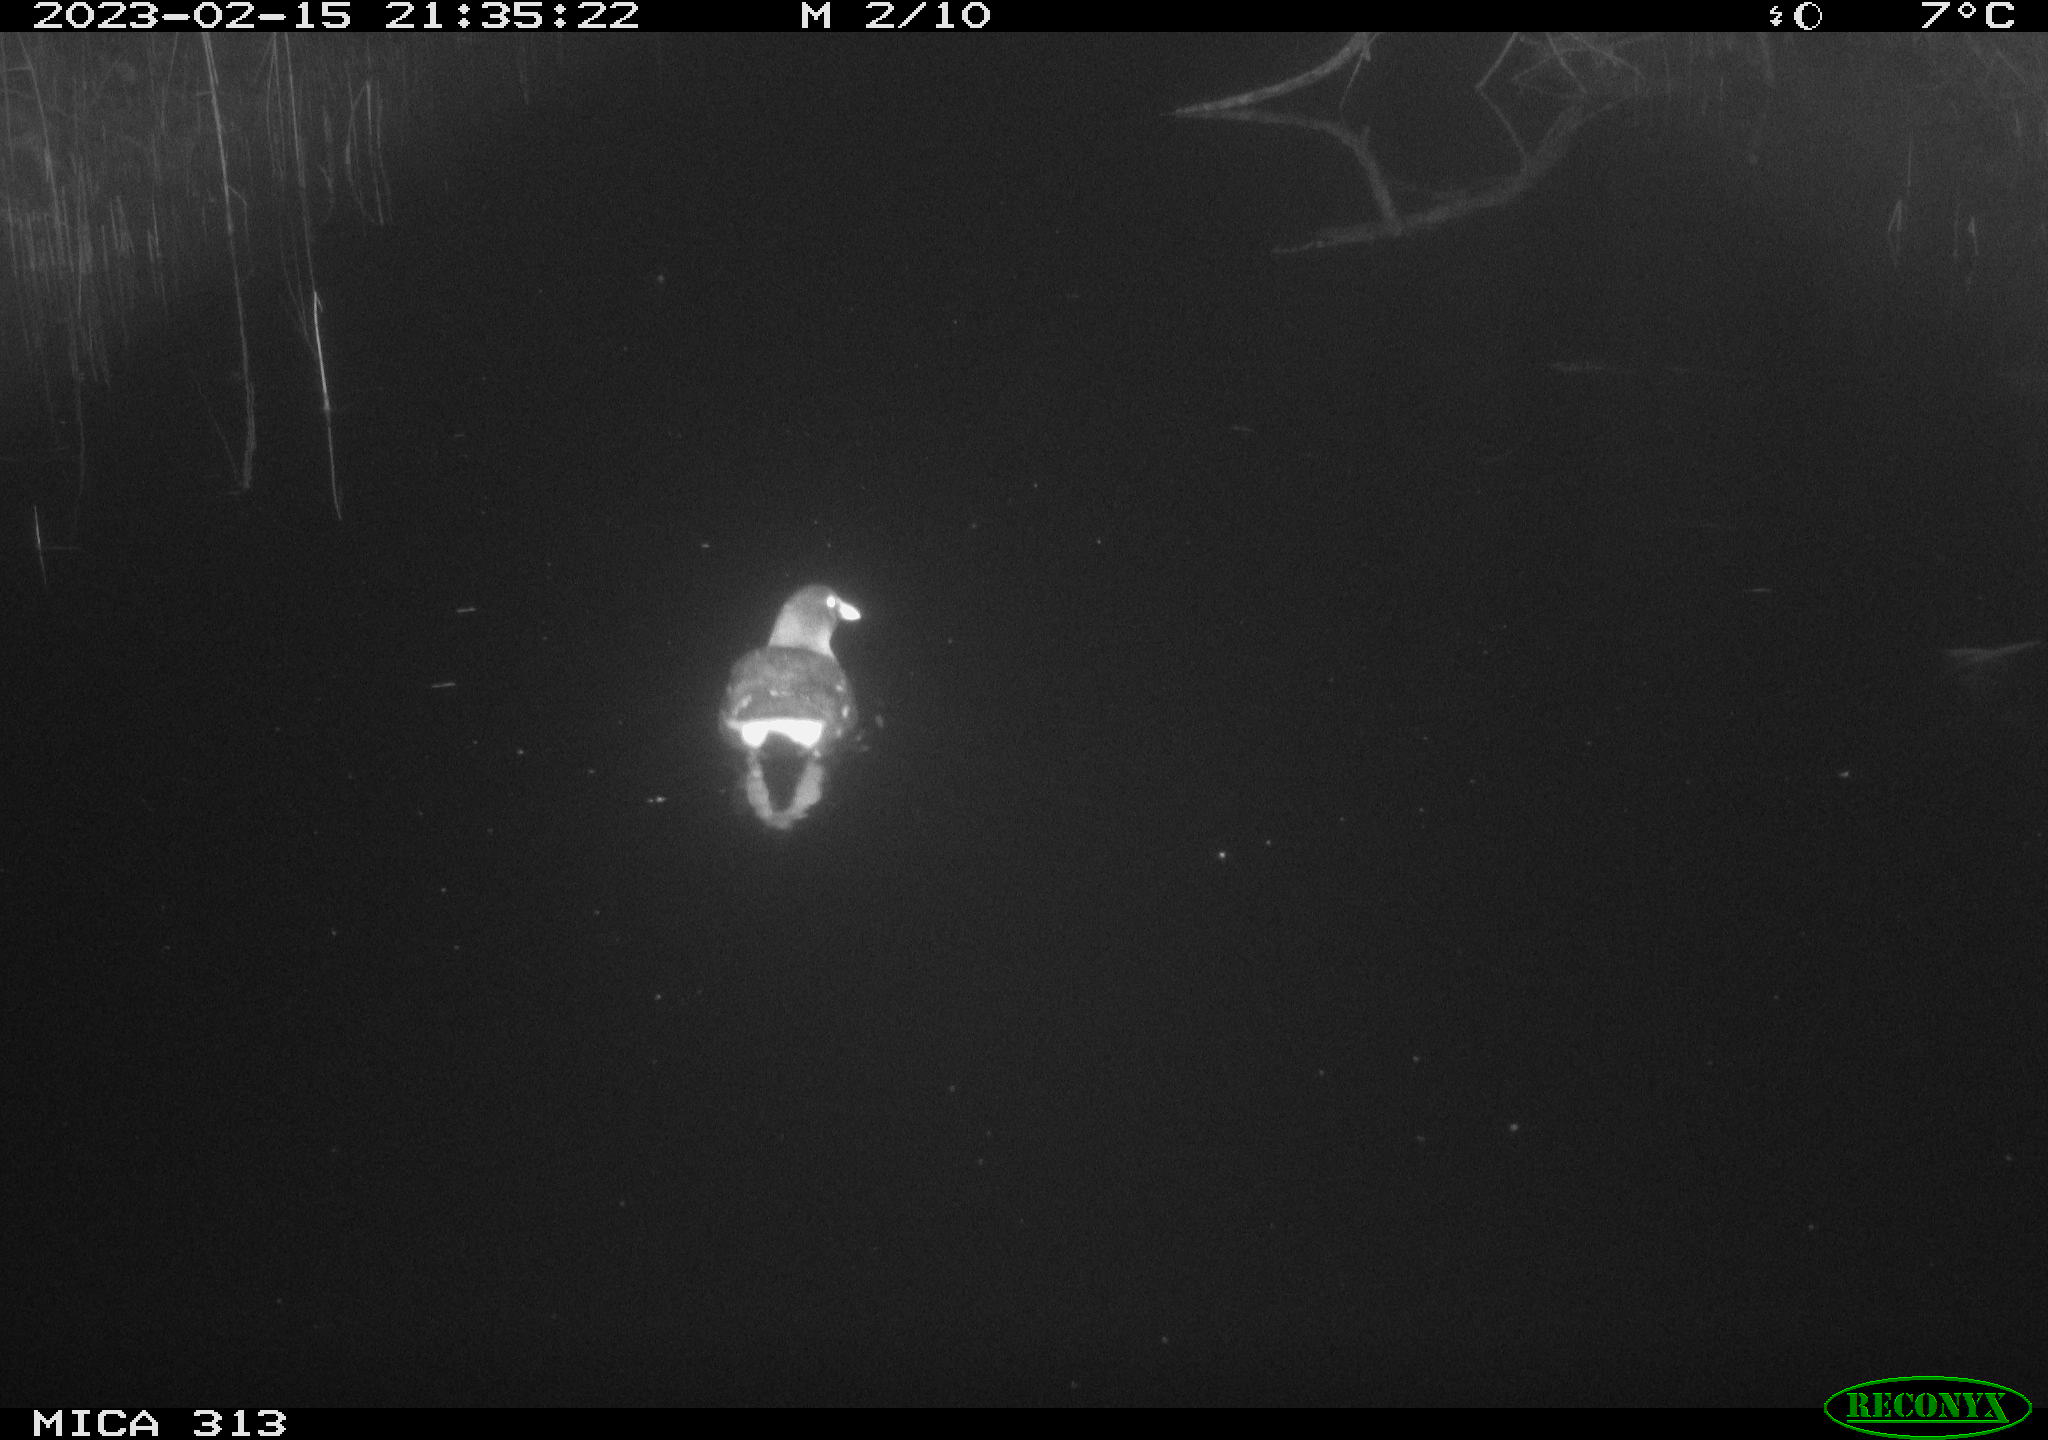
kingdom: Animalia
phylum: Chordata
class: Aves
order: Gruiformes
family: Rallidae
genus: Gallinula
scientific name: Gallinula chloropus
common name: Common moorhen
